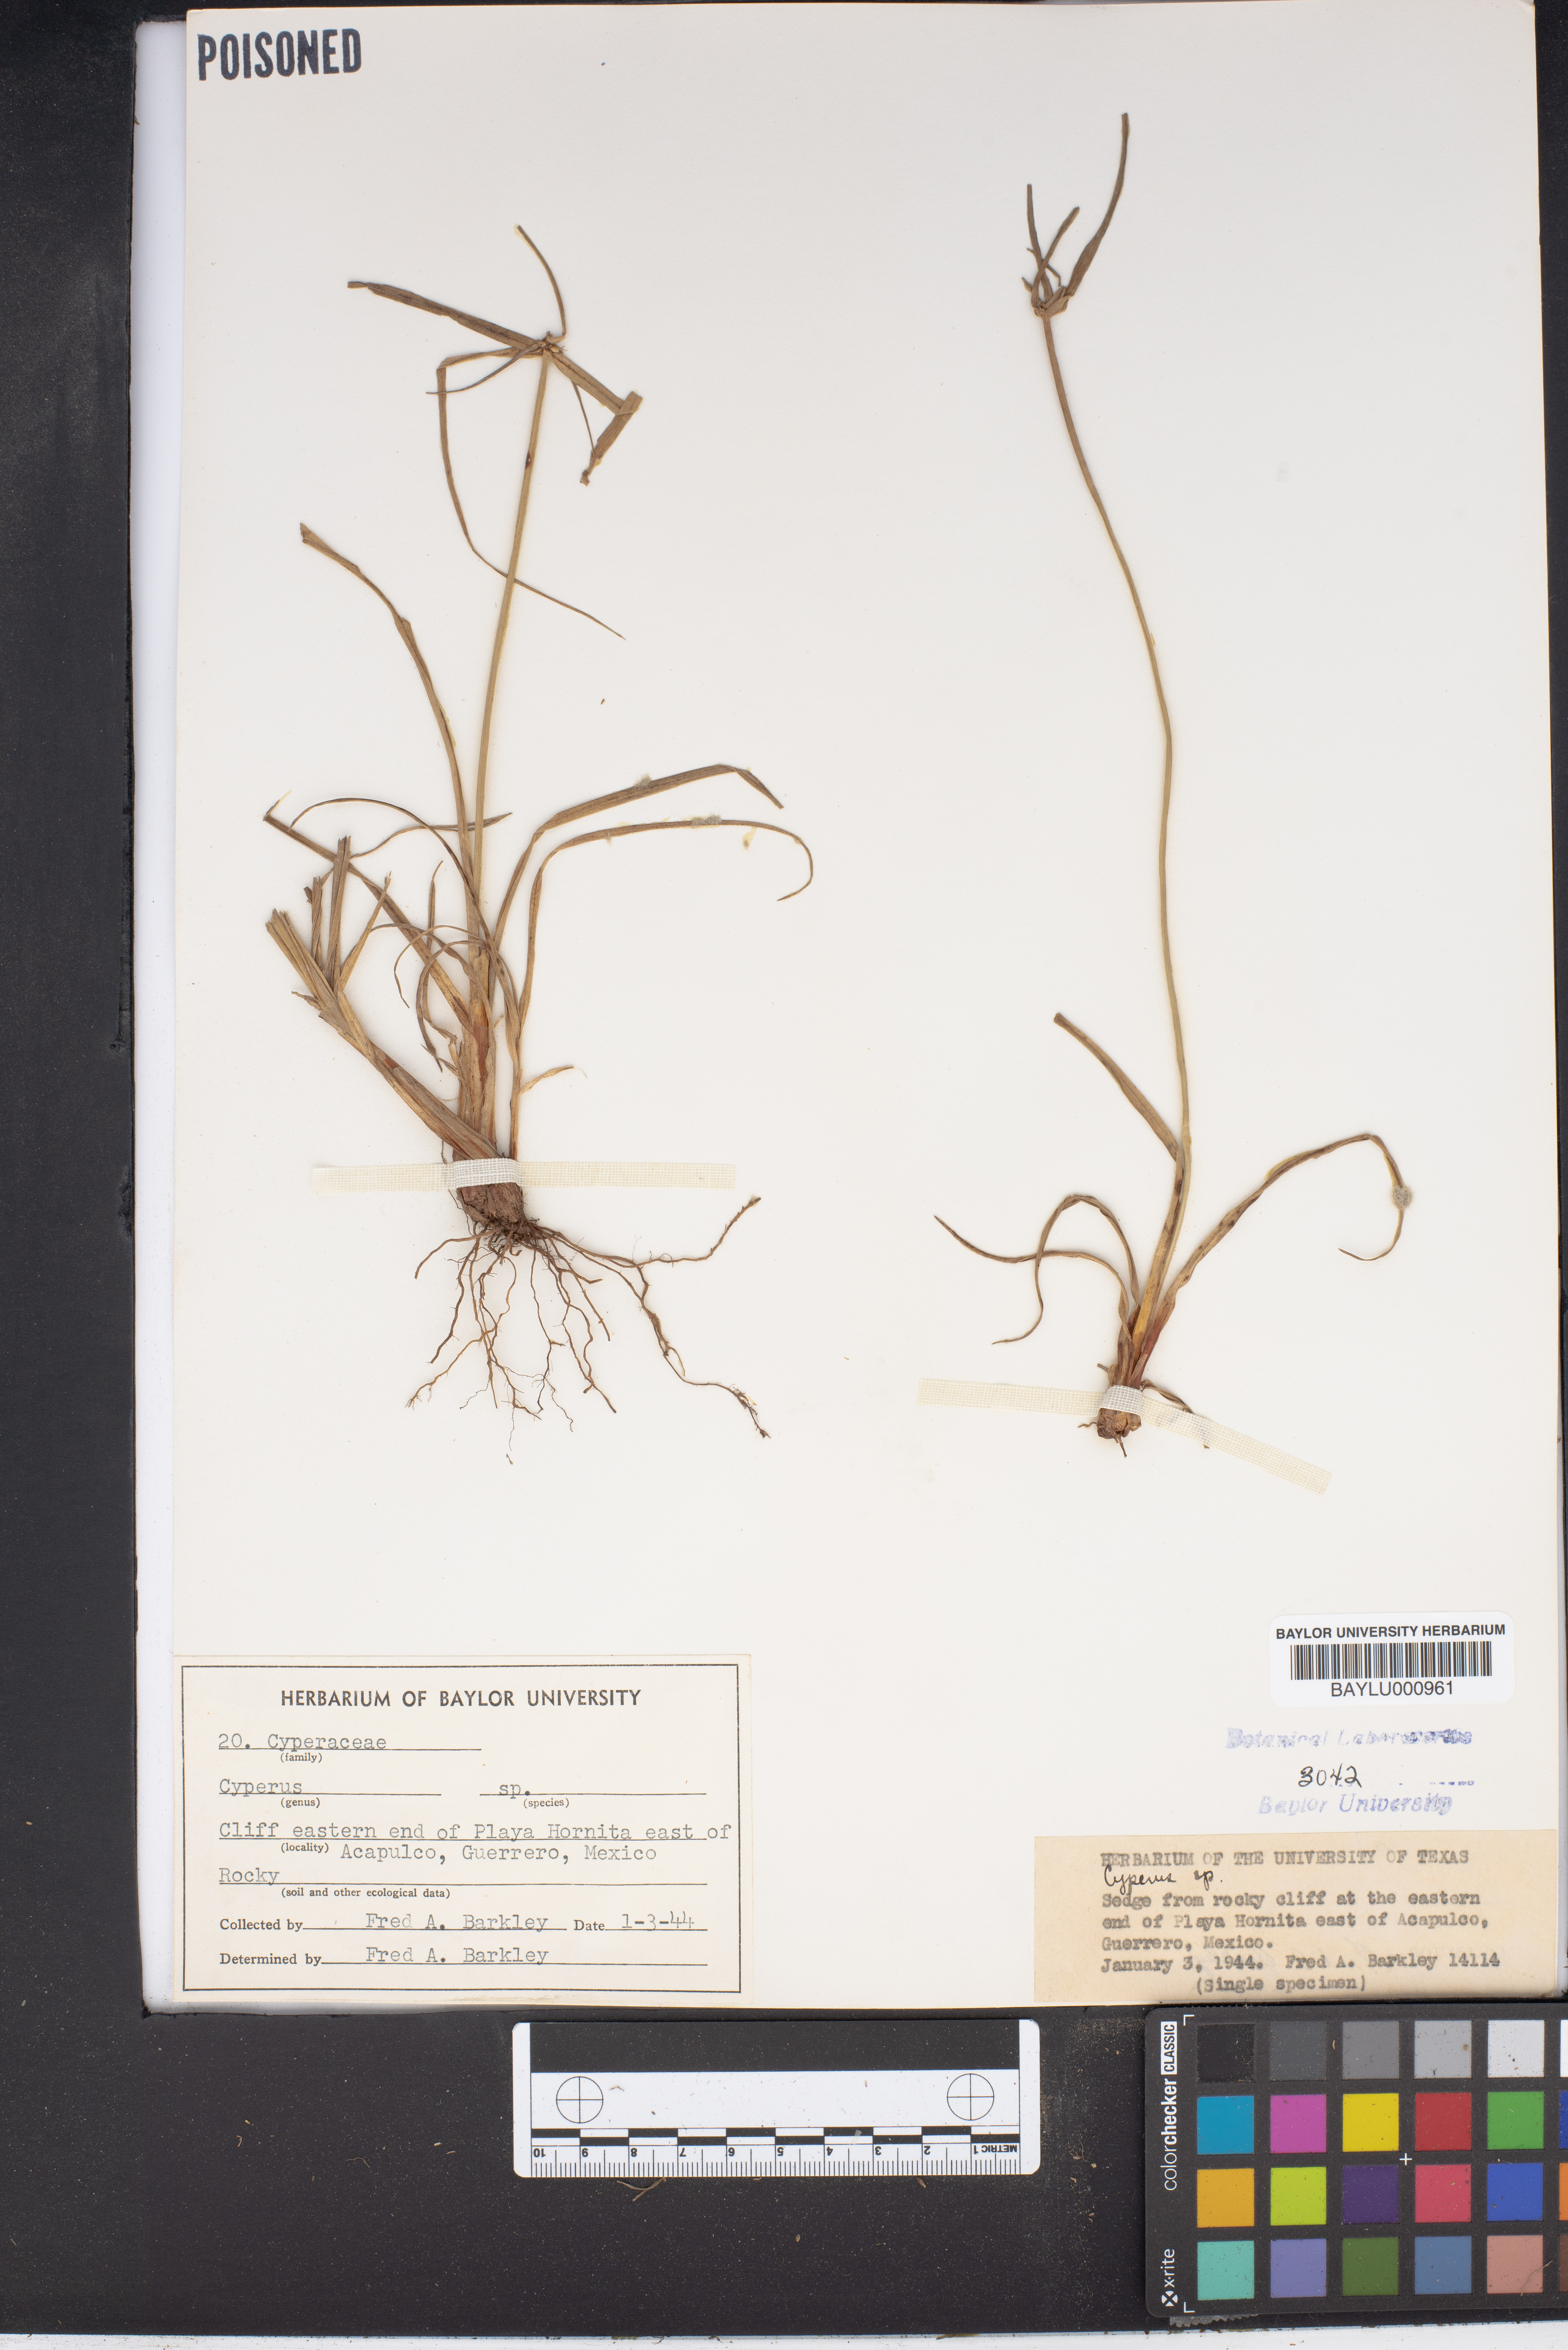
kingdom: Plantae
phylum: Tracheophyta
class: Liliopsida
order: Poales
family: Cyperaceae
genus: Cyperus
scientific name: Cyperus
